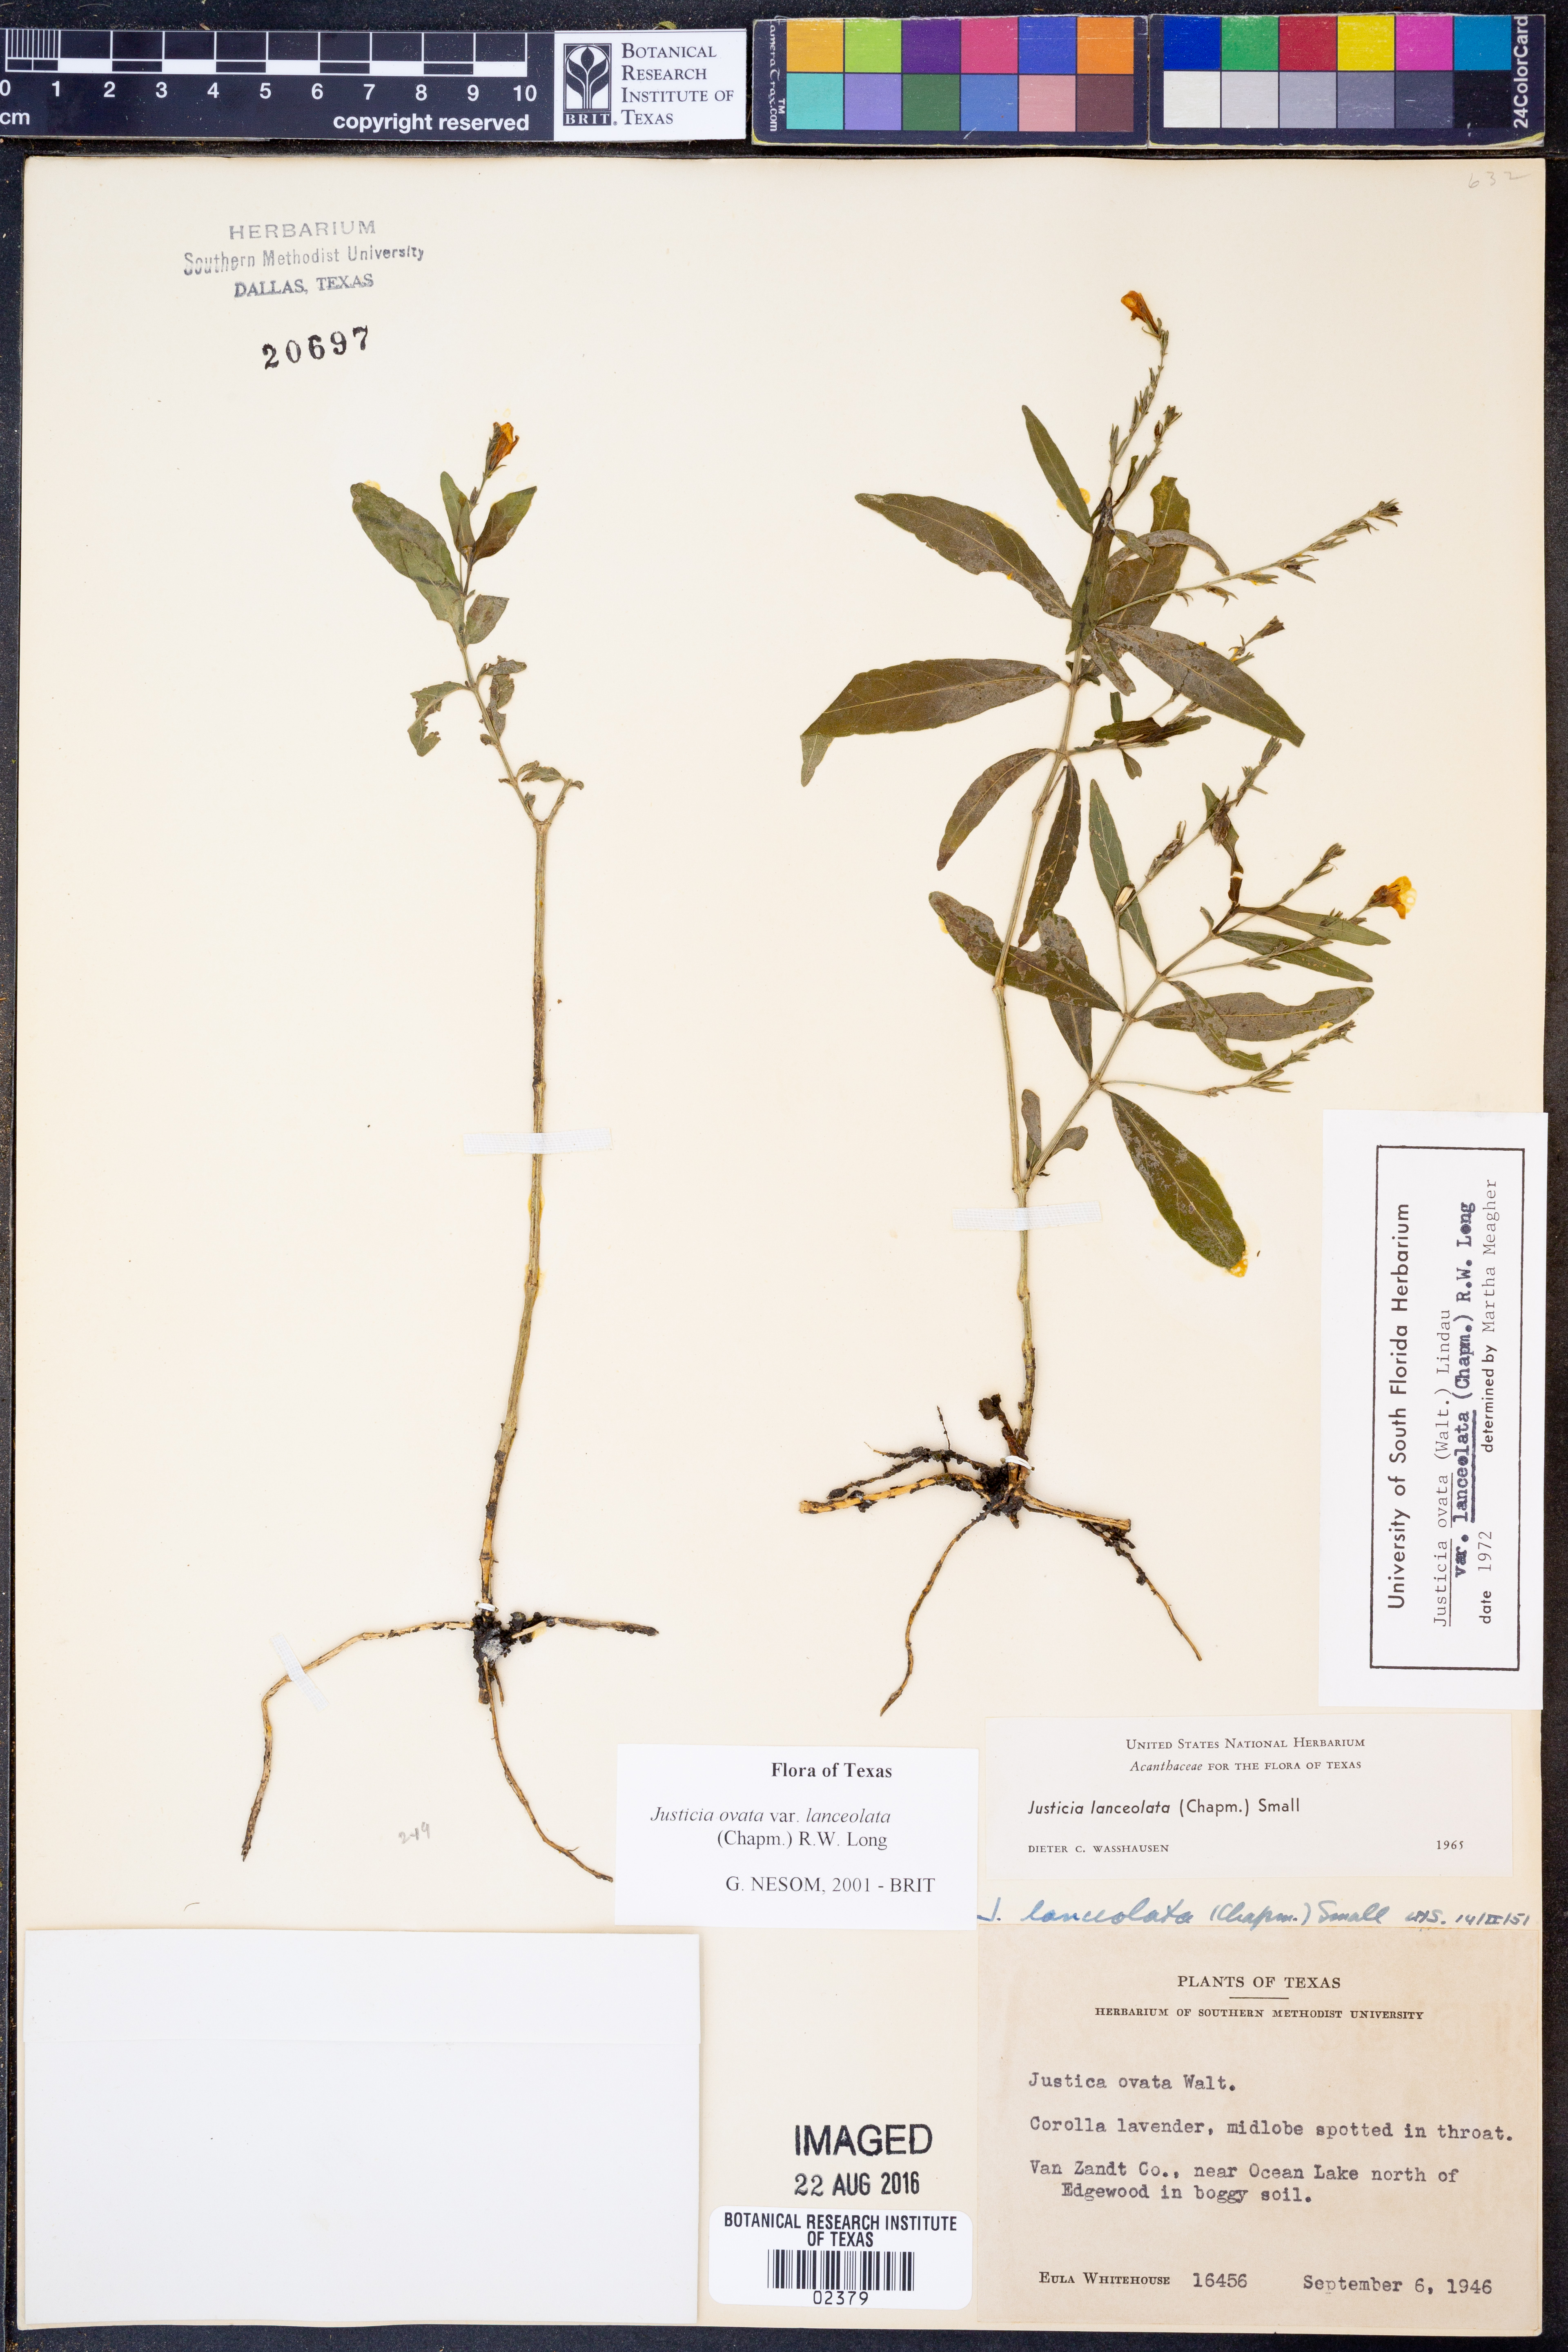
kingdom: Plantae
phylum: Tracheophyta
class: Magnoliopsida
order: Lamiales
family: Acanthaceae
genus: Justicia
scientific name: Justicia lanceolata
